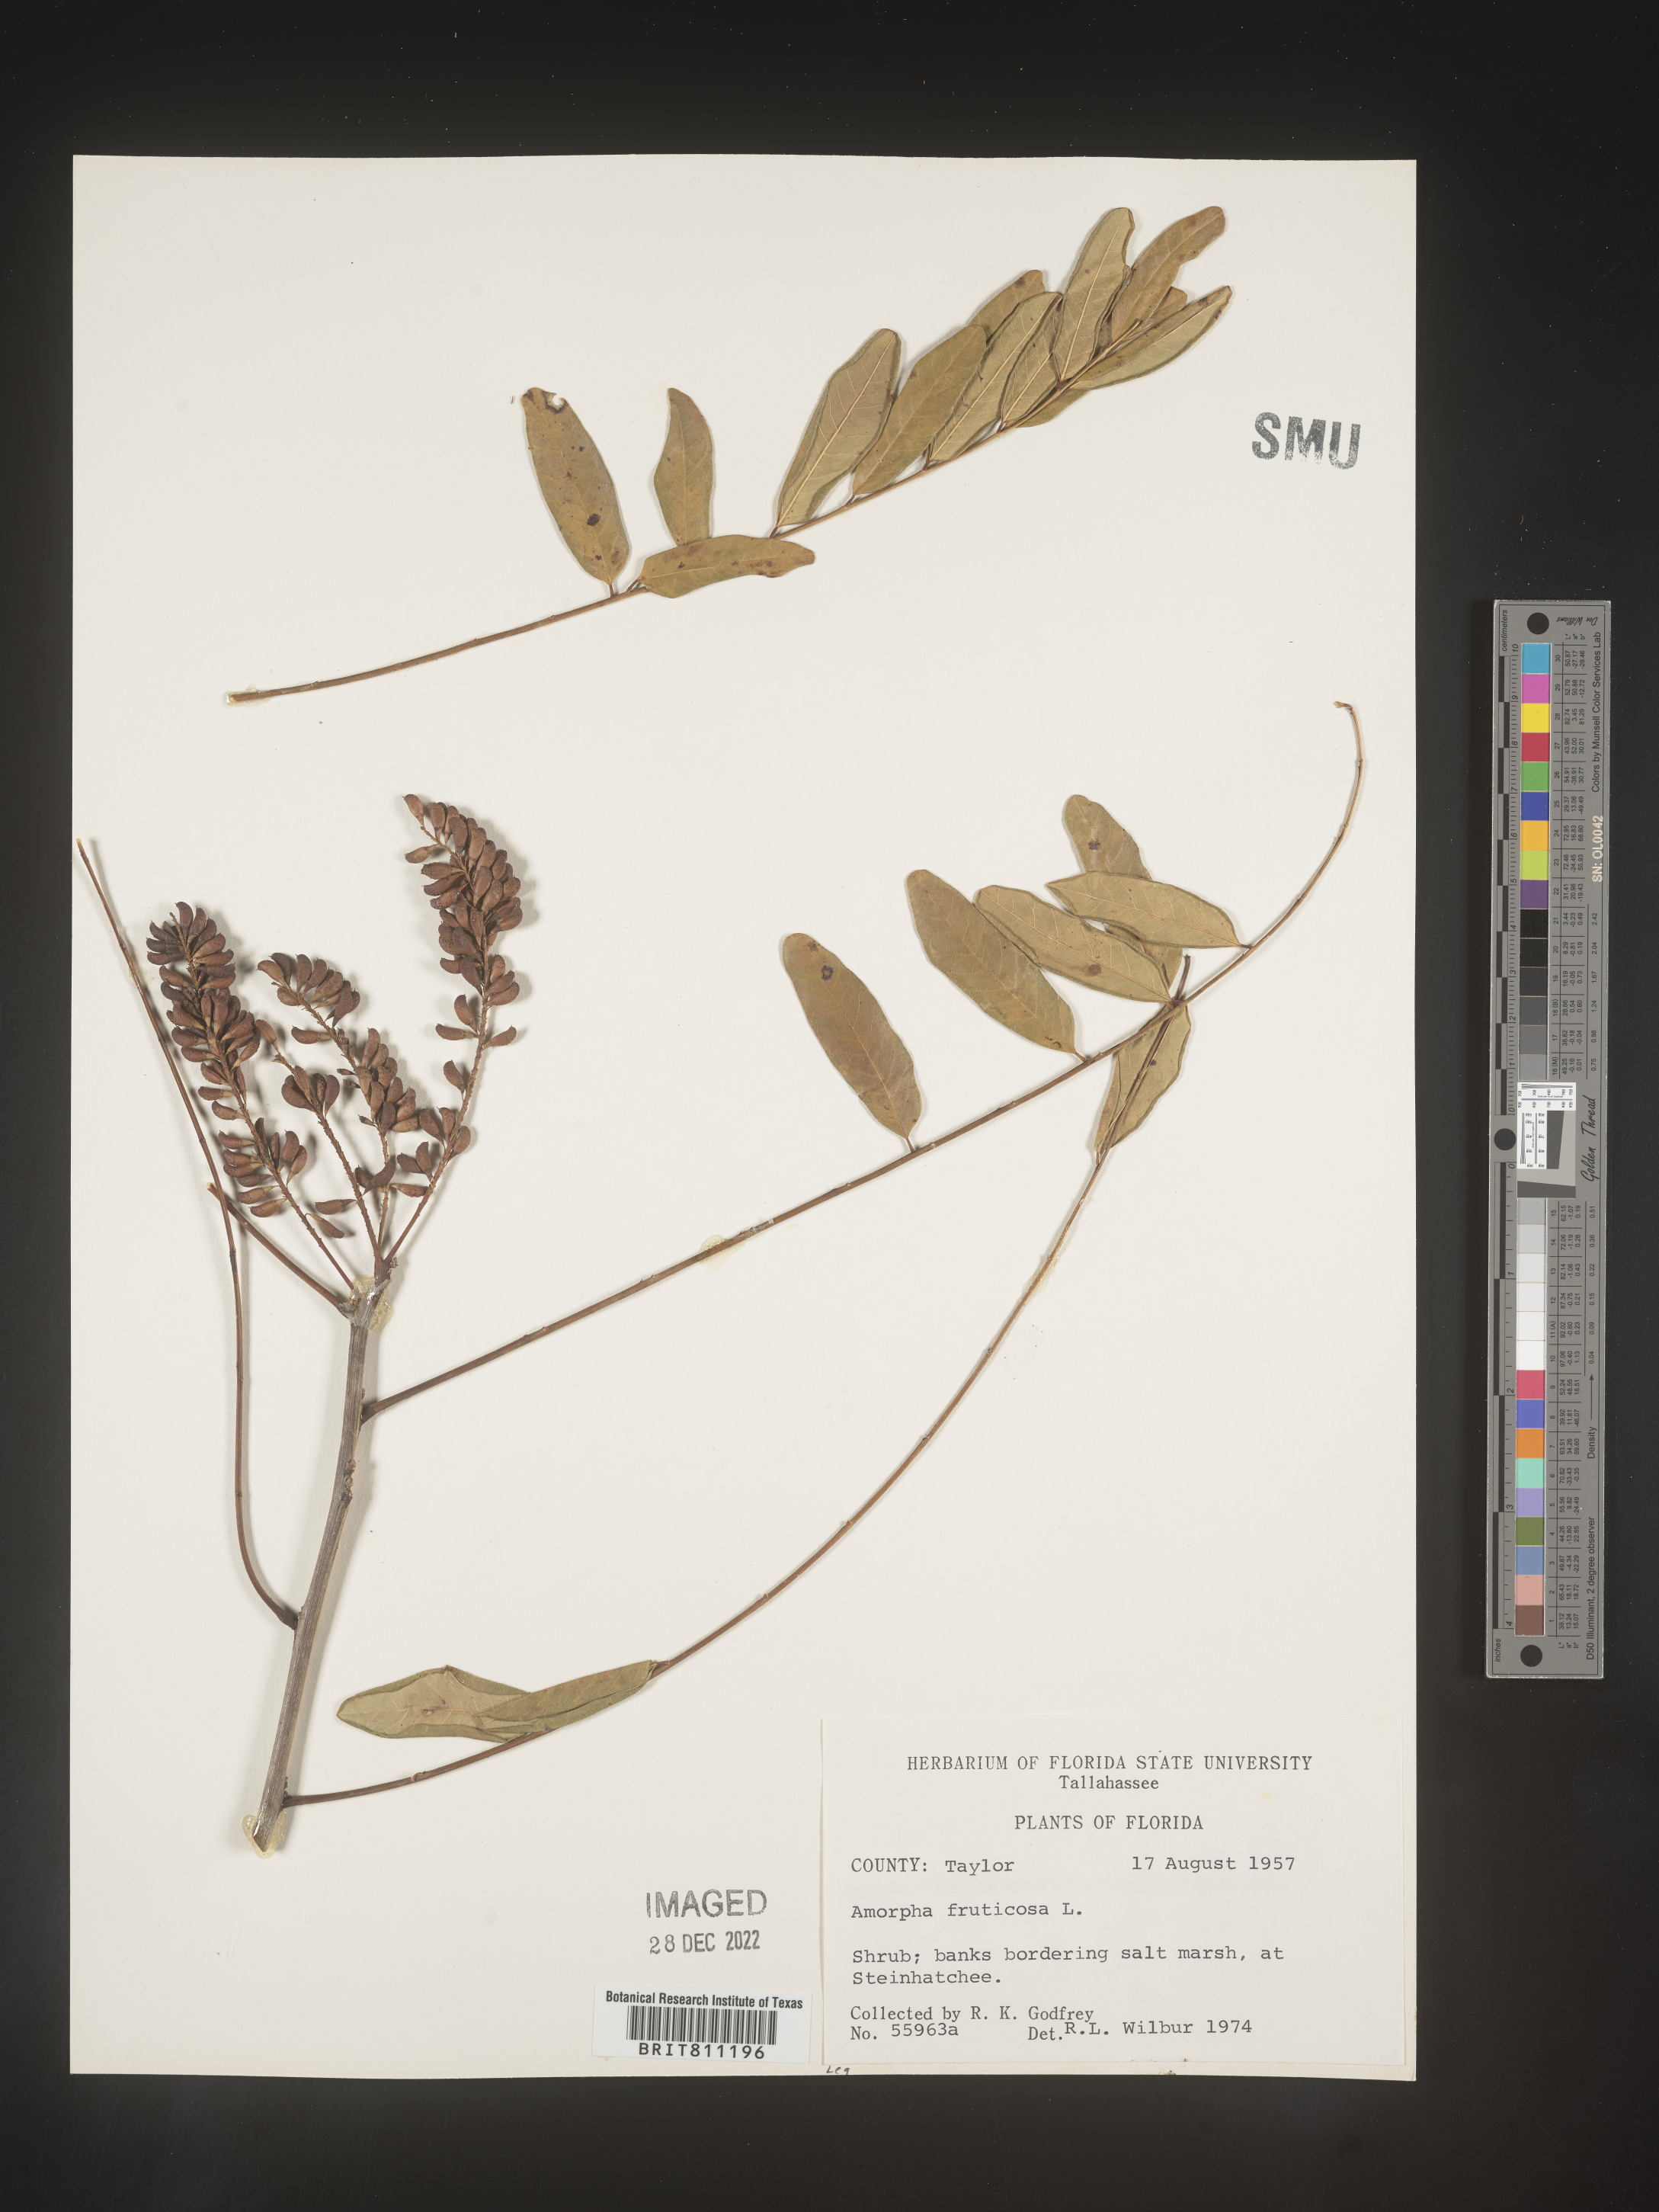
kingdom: Plantae
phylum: Tracheophyta
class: Magnoliopsida
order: Fabales
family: Fabaceae
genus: Amorpha
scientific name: Amorpha fruticosa
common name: False indigo
